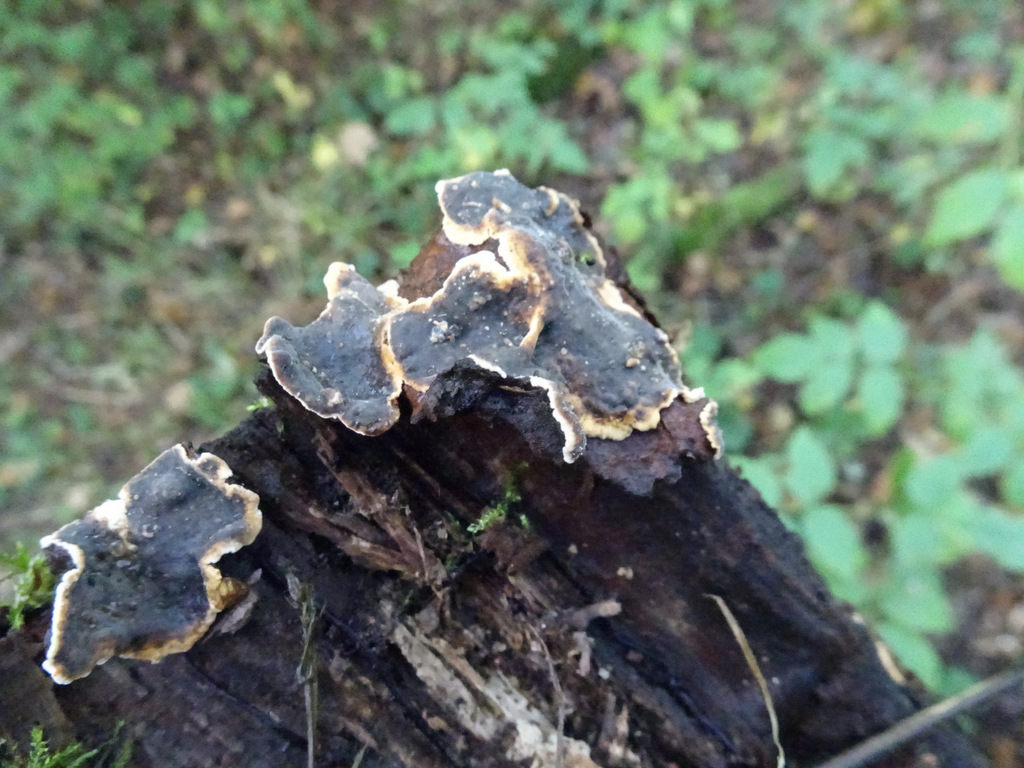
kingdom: Fungi
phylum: Basidiomycota
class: Agaricomycetes
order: Corticiales
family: Corticiaceae
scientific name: Corticiaceae
